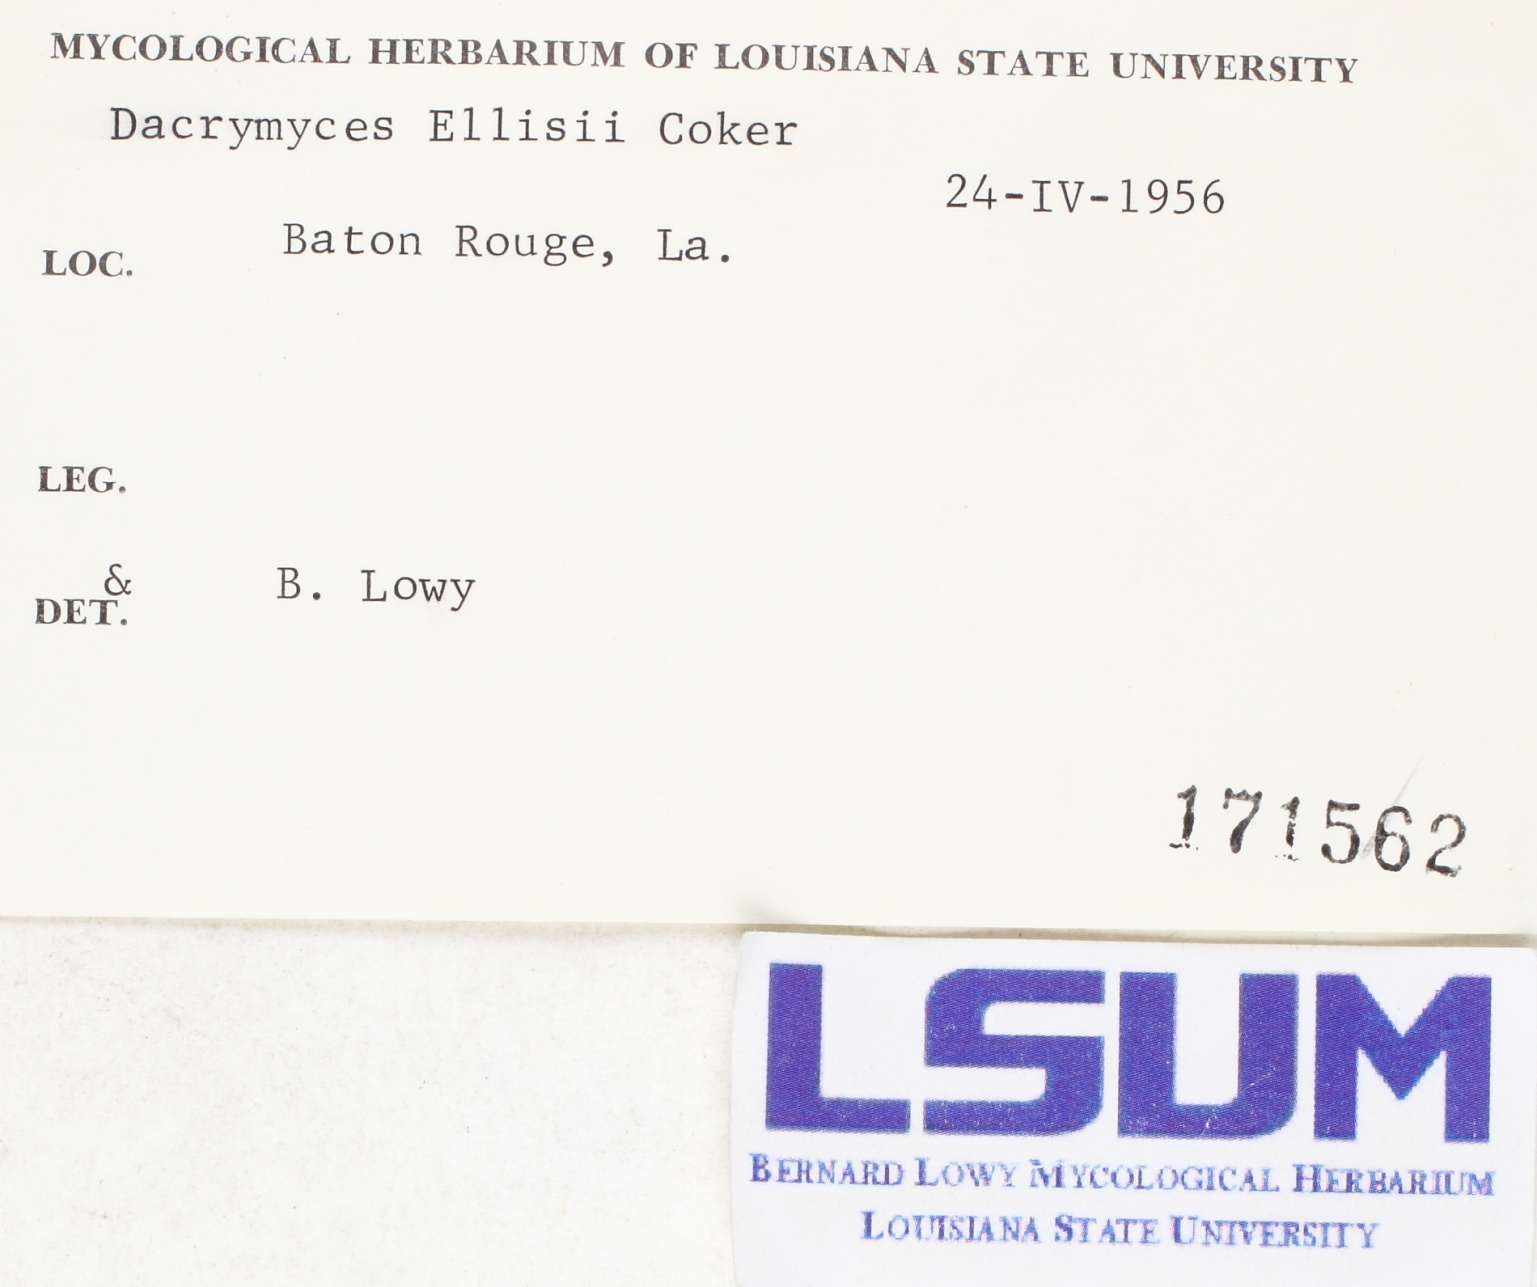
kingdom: Fungi
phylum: Basidiomycota
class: Dacrymycetes
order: Dacrymycetales
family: Dacrymycetaceae
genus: Dacrymyces
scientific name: Dacrymyces capitatus
